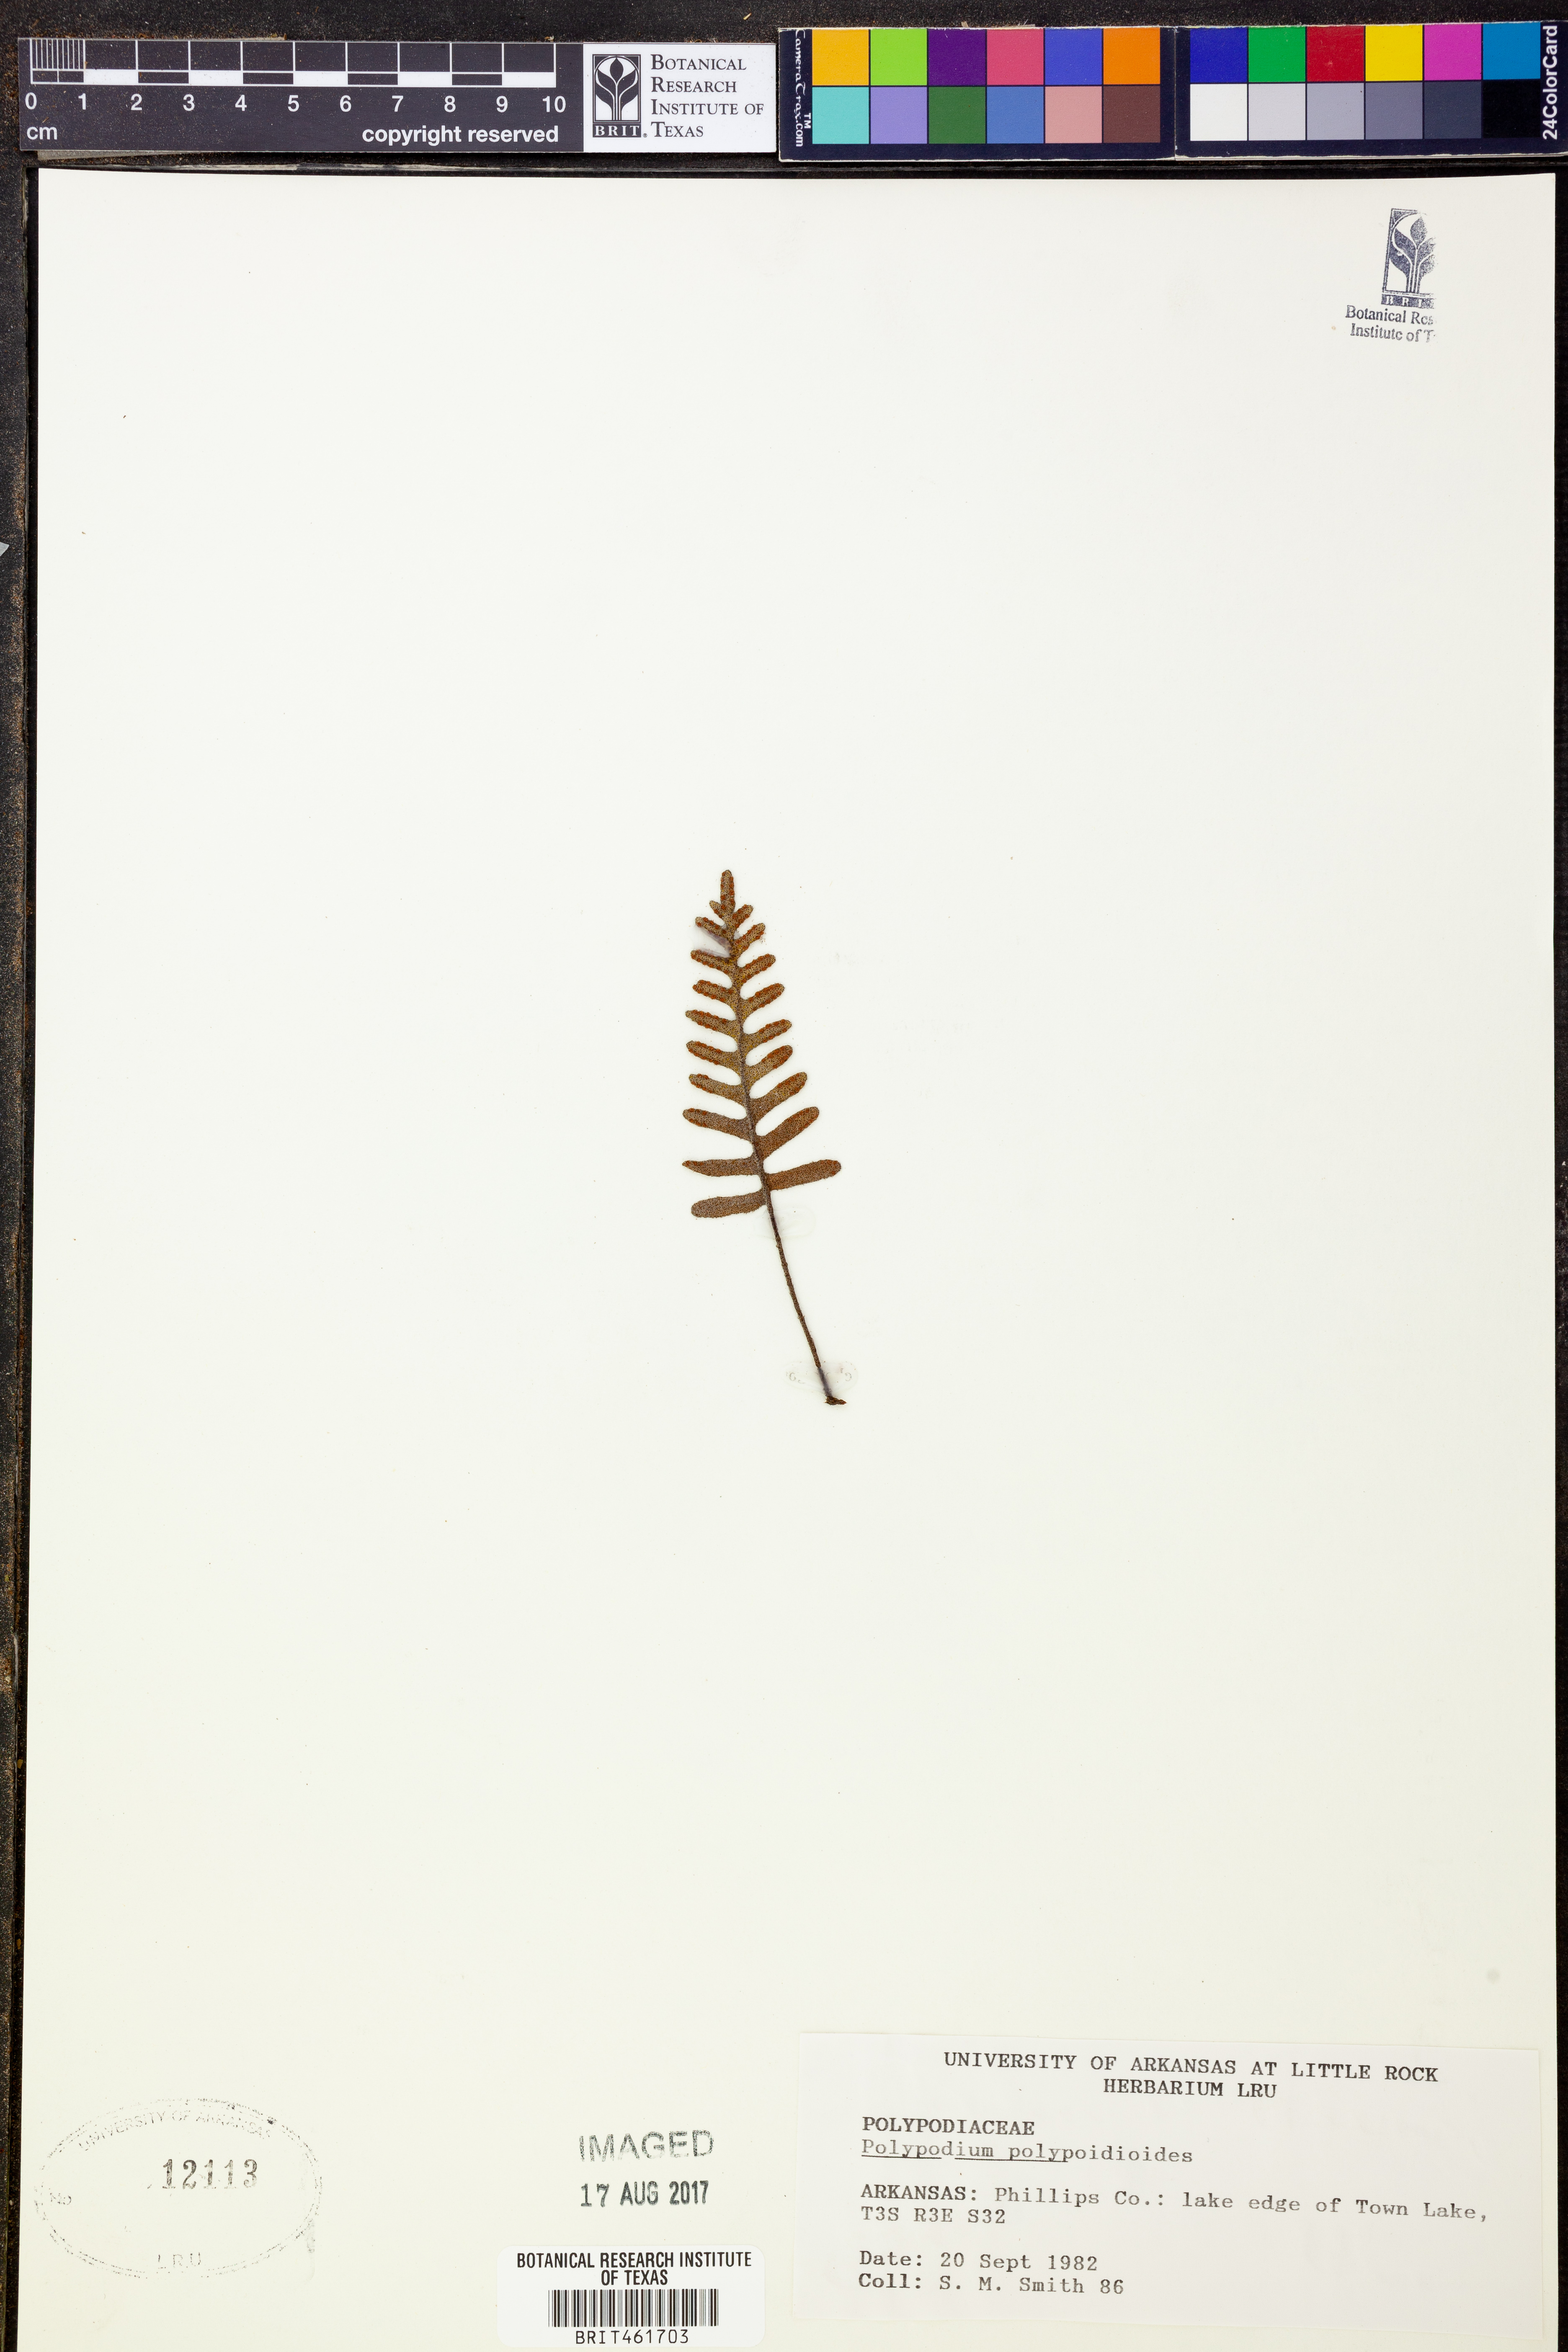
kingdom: Plantae
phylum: Tracheophyta
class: Polypodiopsida
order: Polypodiales
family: Polypodiaceae
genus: Pleopeltis
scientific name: Pleopeltis polypodioides
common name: Resurrection fern
